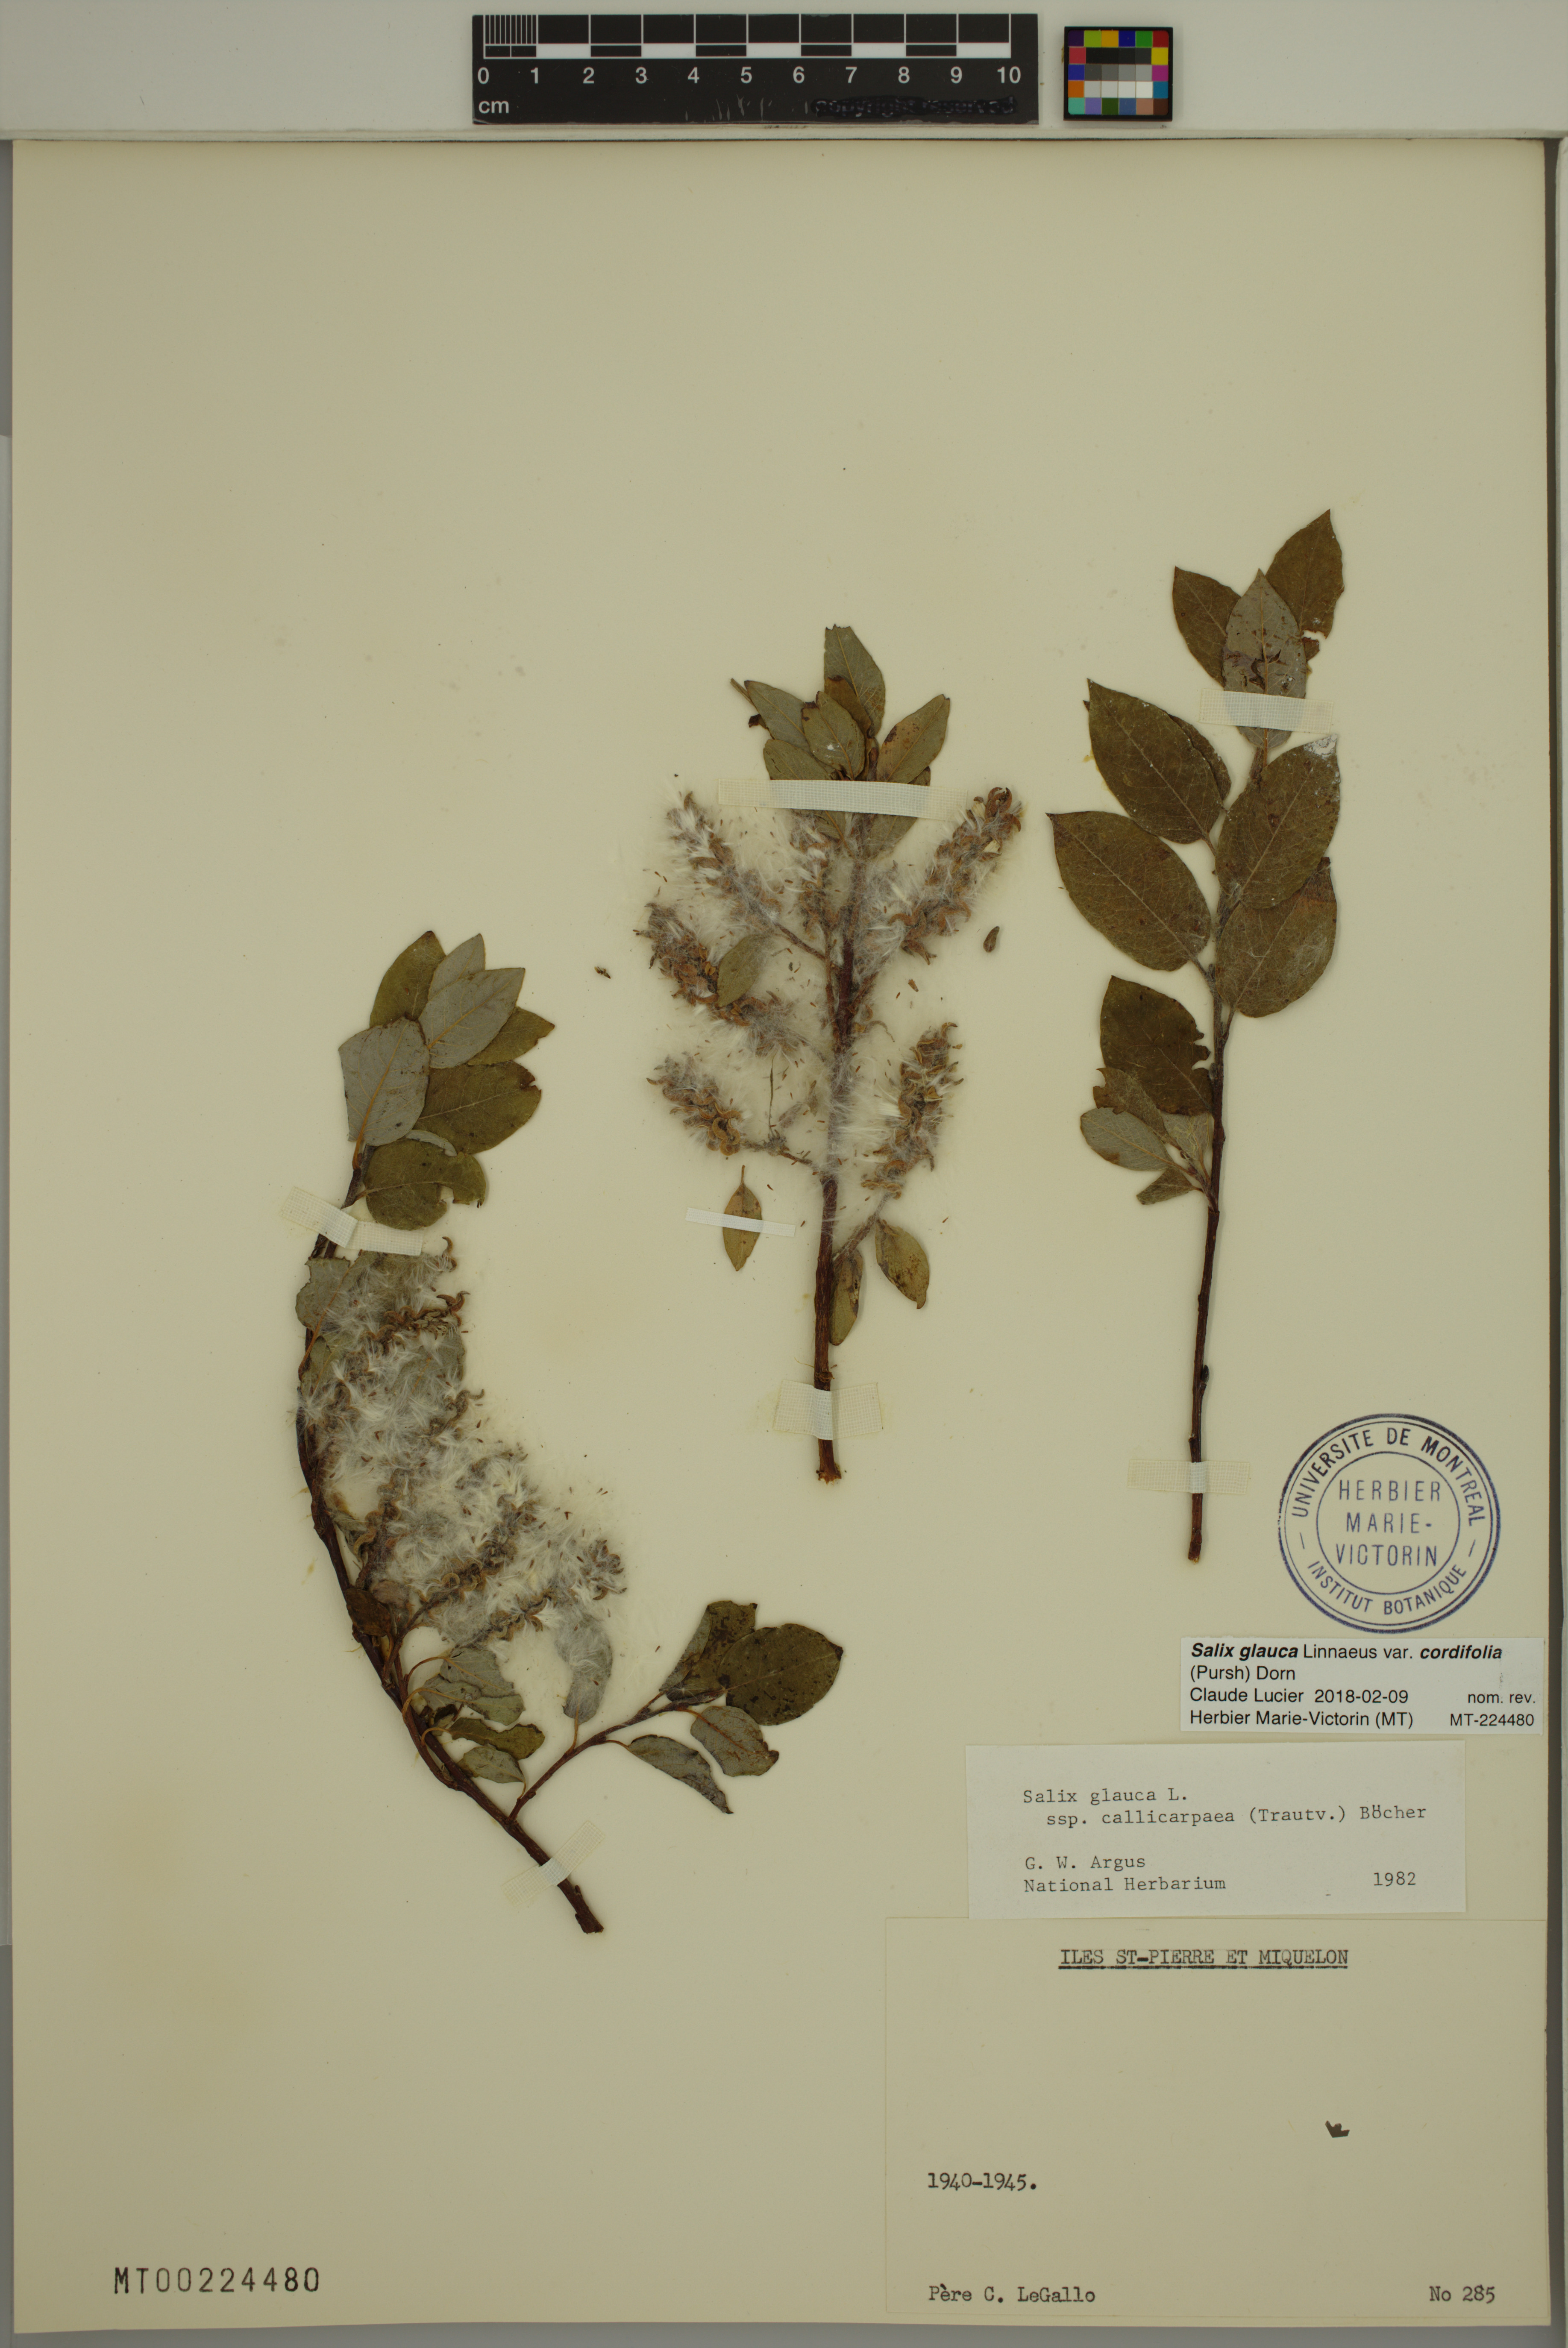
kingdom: Plantae
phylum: Tracheophyta
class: Magnoliopsida
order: Malpighiales
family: Salicaceae
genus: Salix
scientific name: Salix glauca
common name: Glaucous willow
